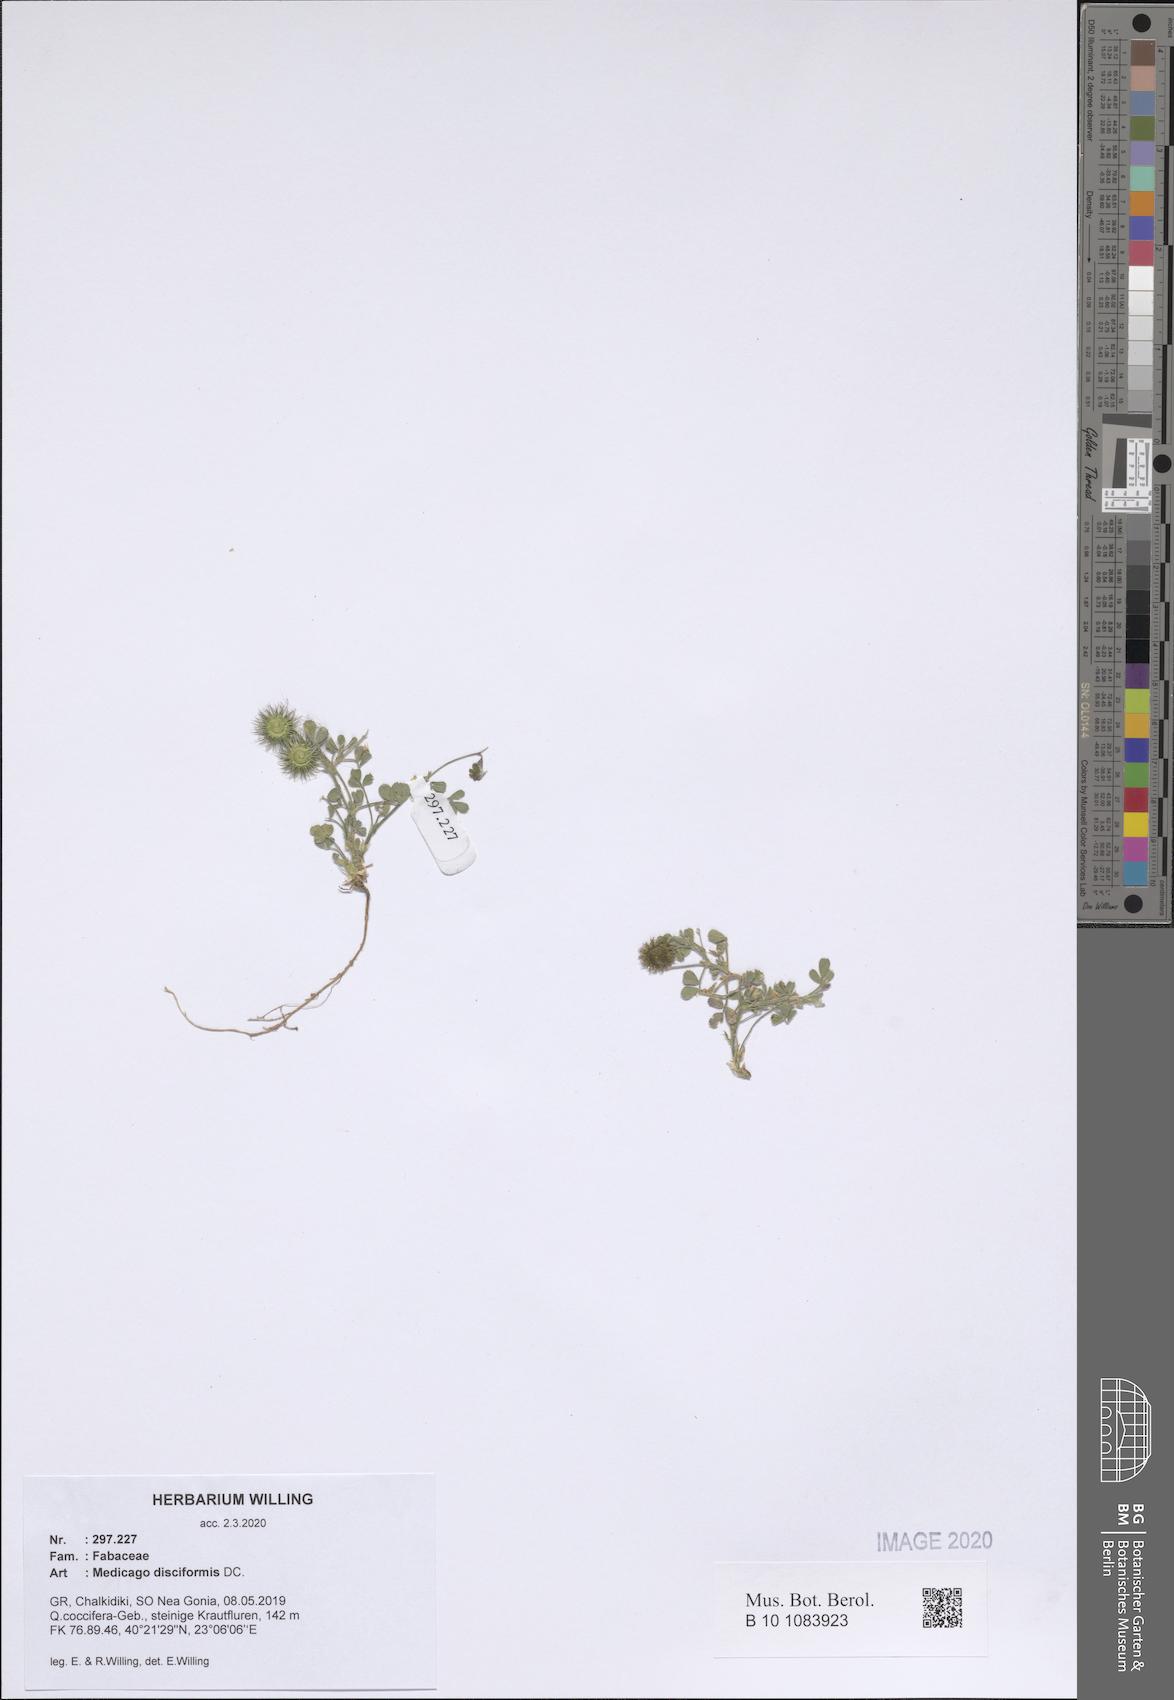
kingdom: Plantae
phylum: Tracheophyta
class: Magnoliopsida
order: Fabales
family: Fabaceae
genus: Medicago
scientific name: Medicago disciformis
